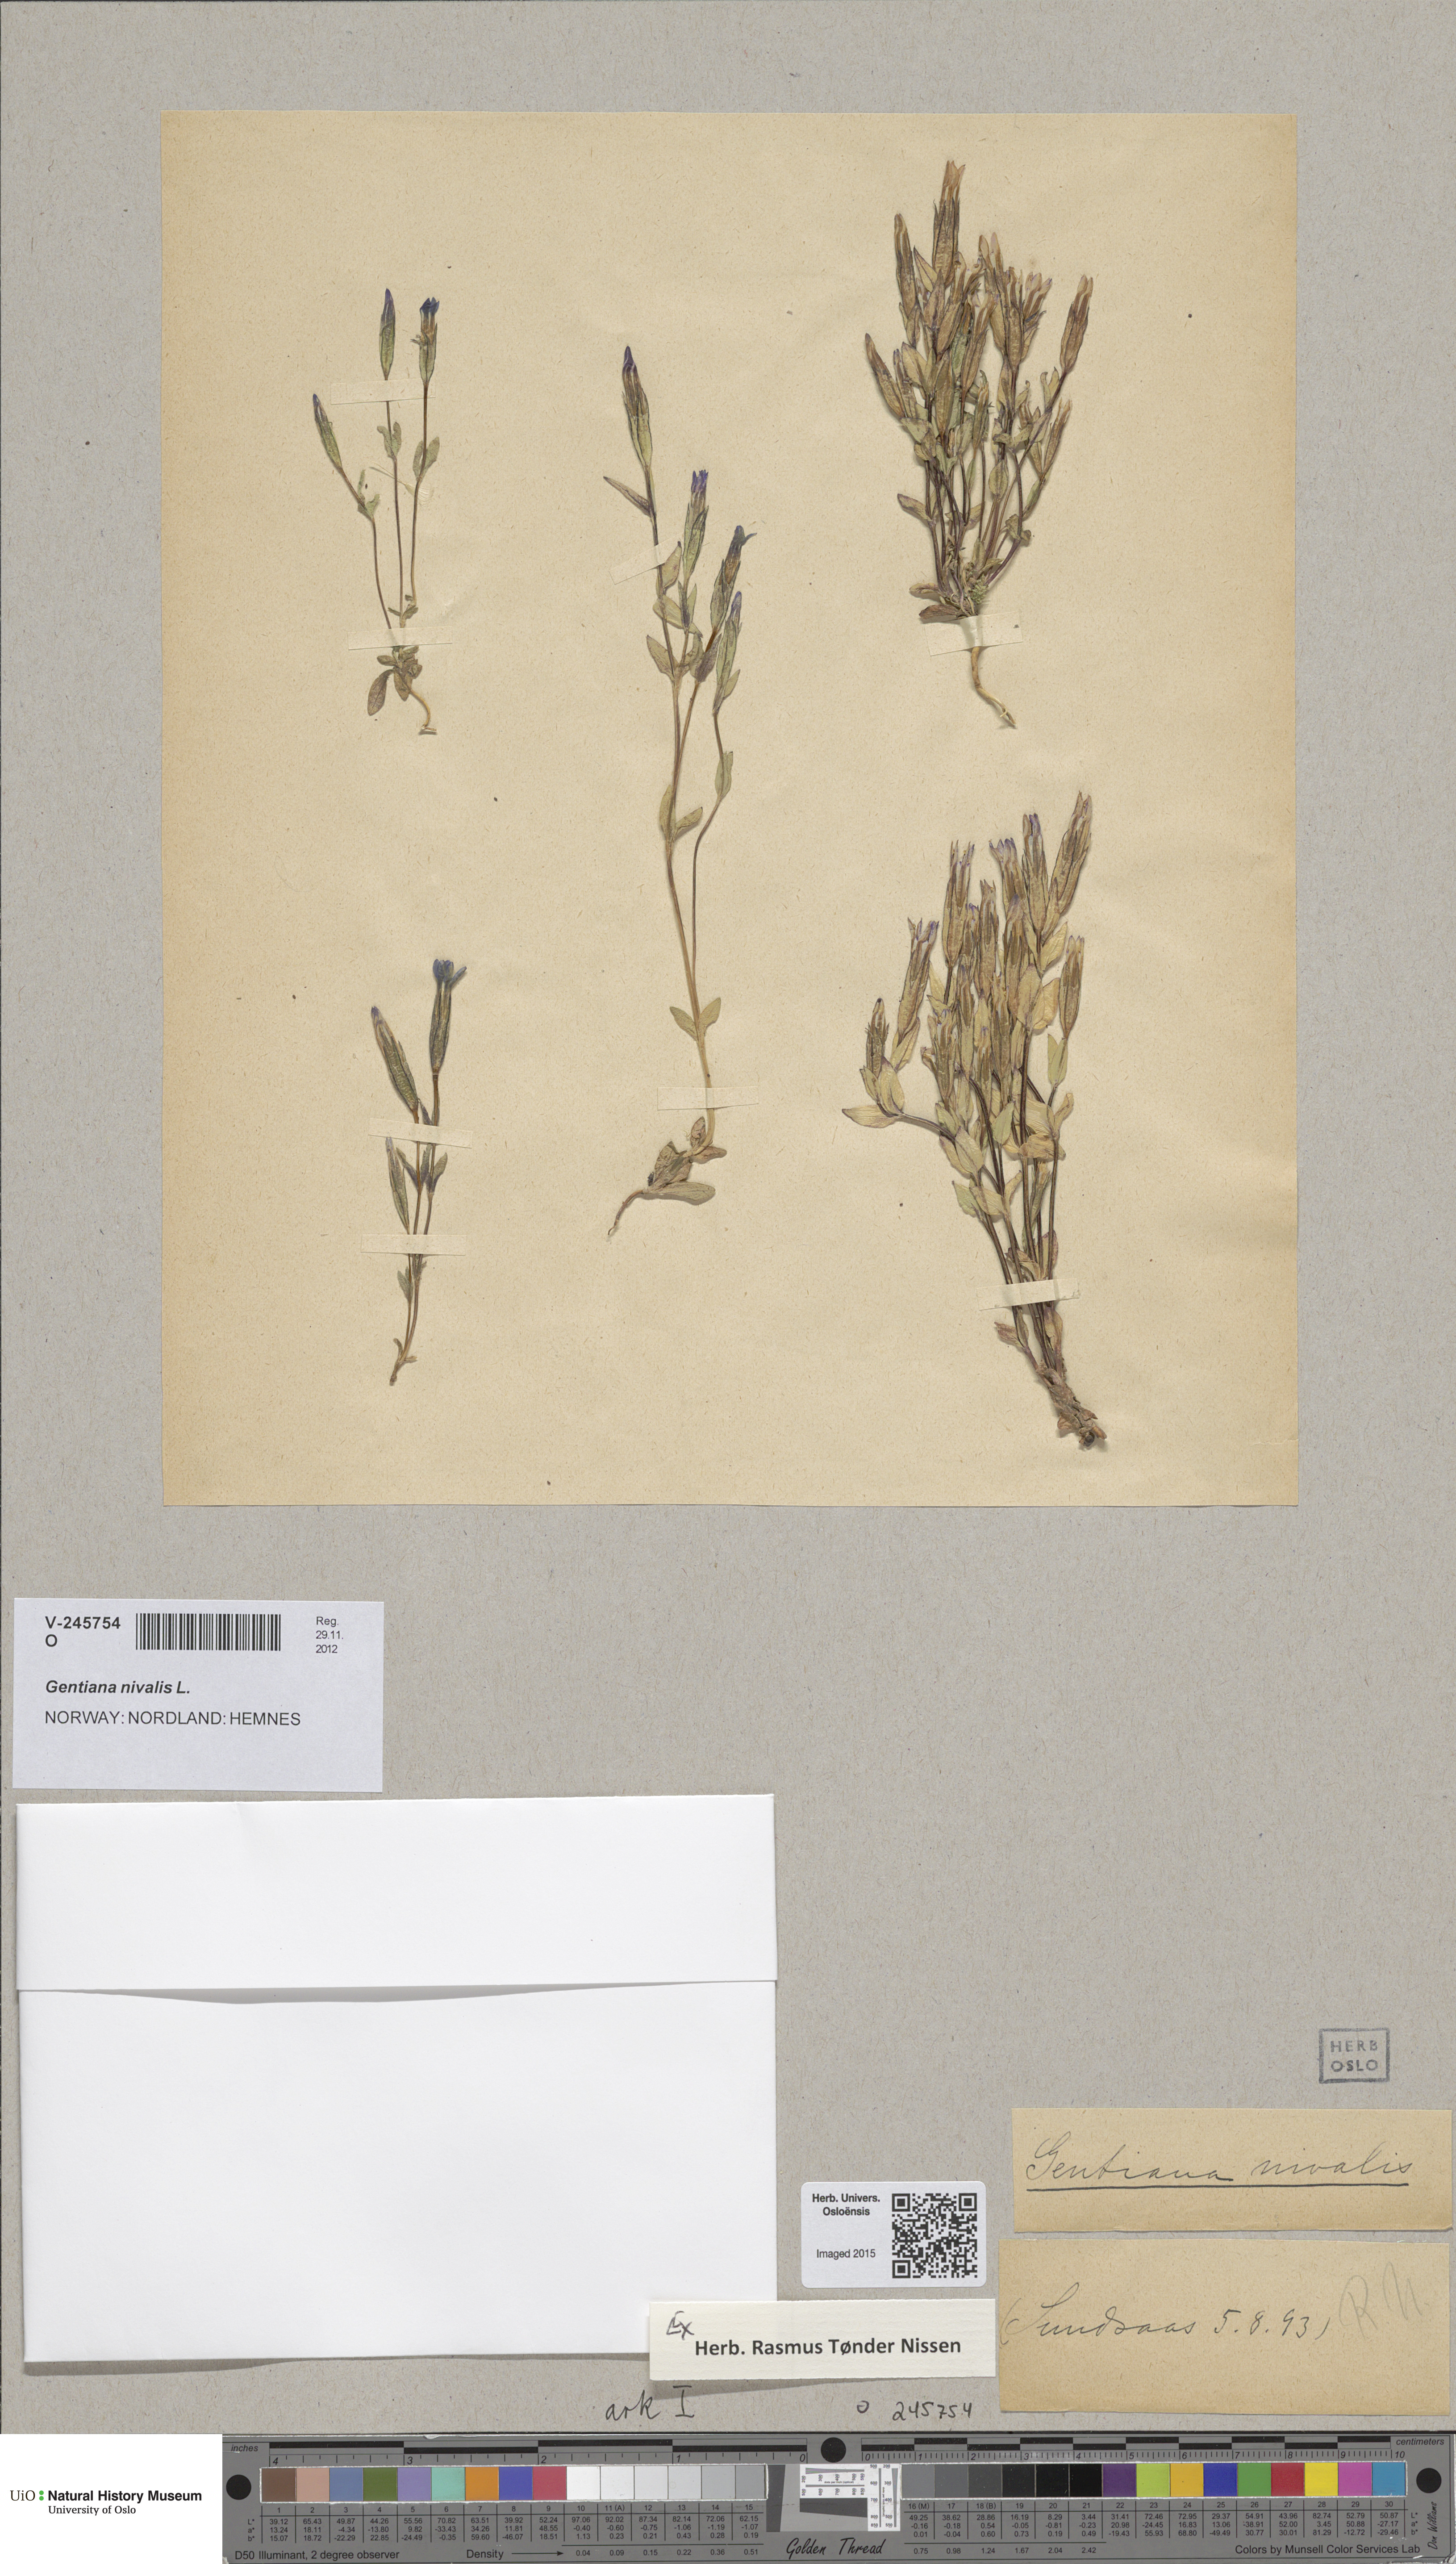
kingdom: Plantae
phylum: Tracheophyta
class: Magnoliopsida
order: Gentianales
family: Gentianaceae
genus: Gentiana
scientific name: Gentiana nivalis
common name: Alpine gentian
